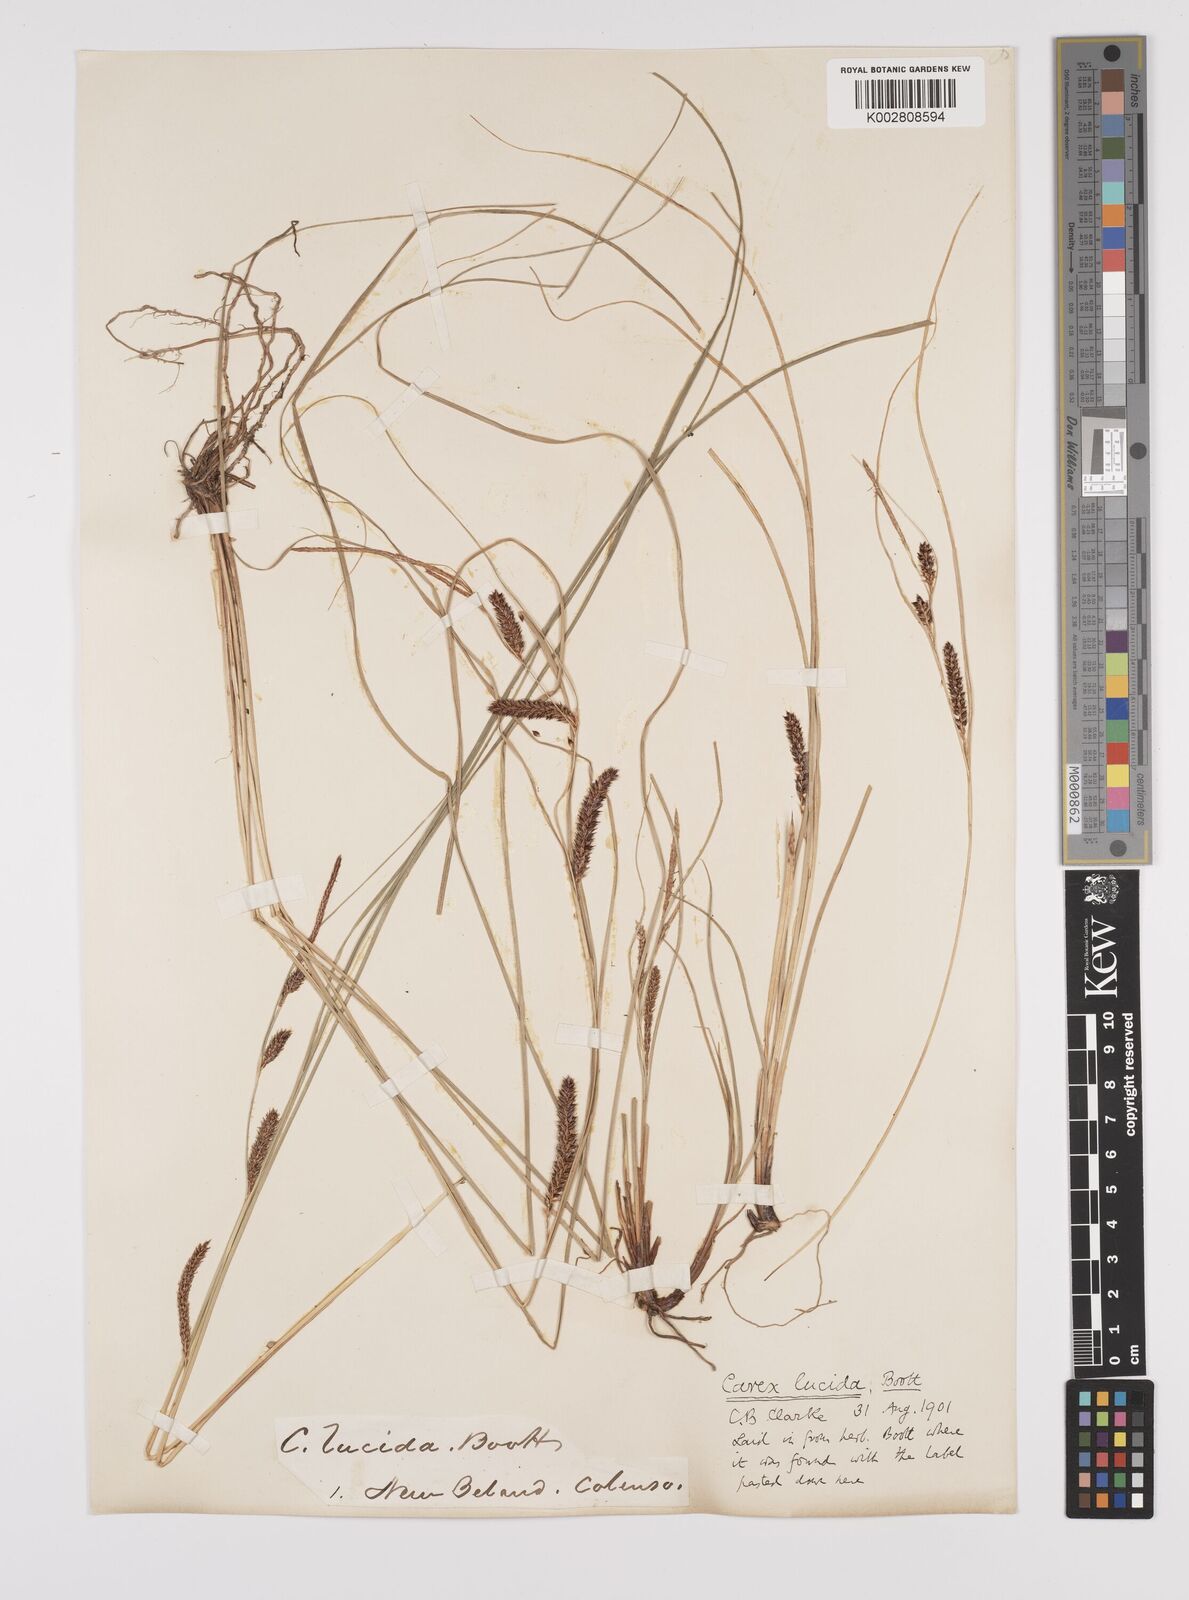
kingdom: Plantae
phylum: Tracheophyta
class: Liliopsida
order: Poales
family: Cyperaceae
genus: Carex
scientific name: Carex flagellifera
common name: Glen murray tussock
